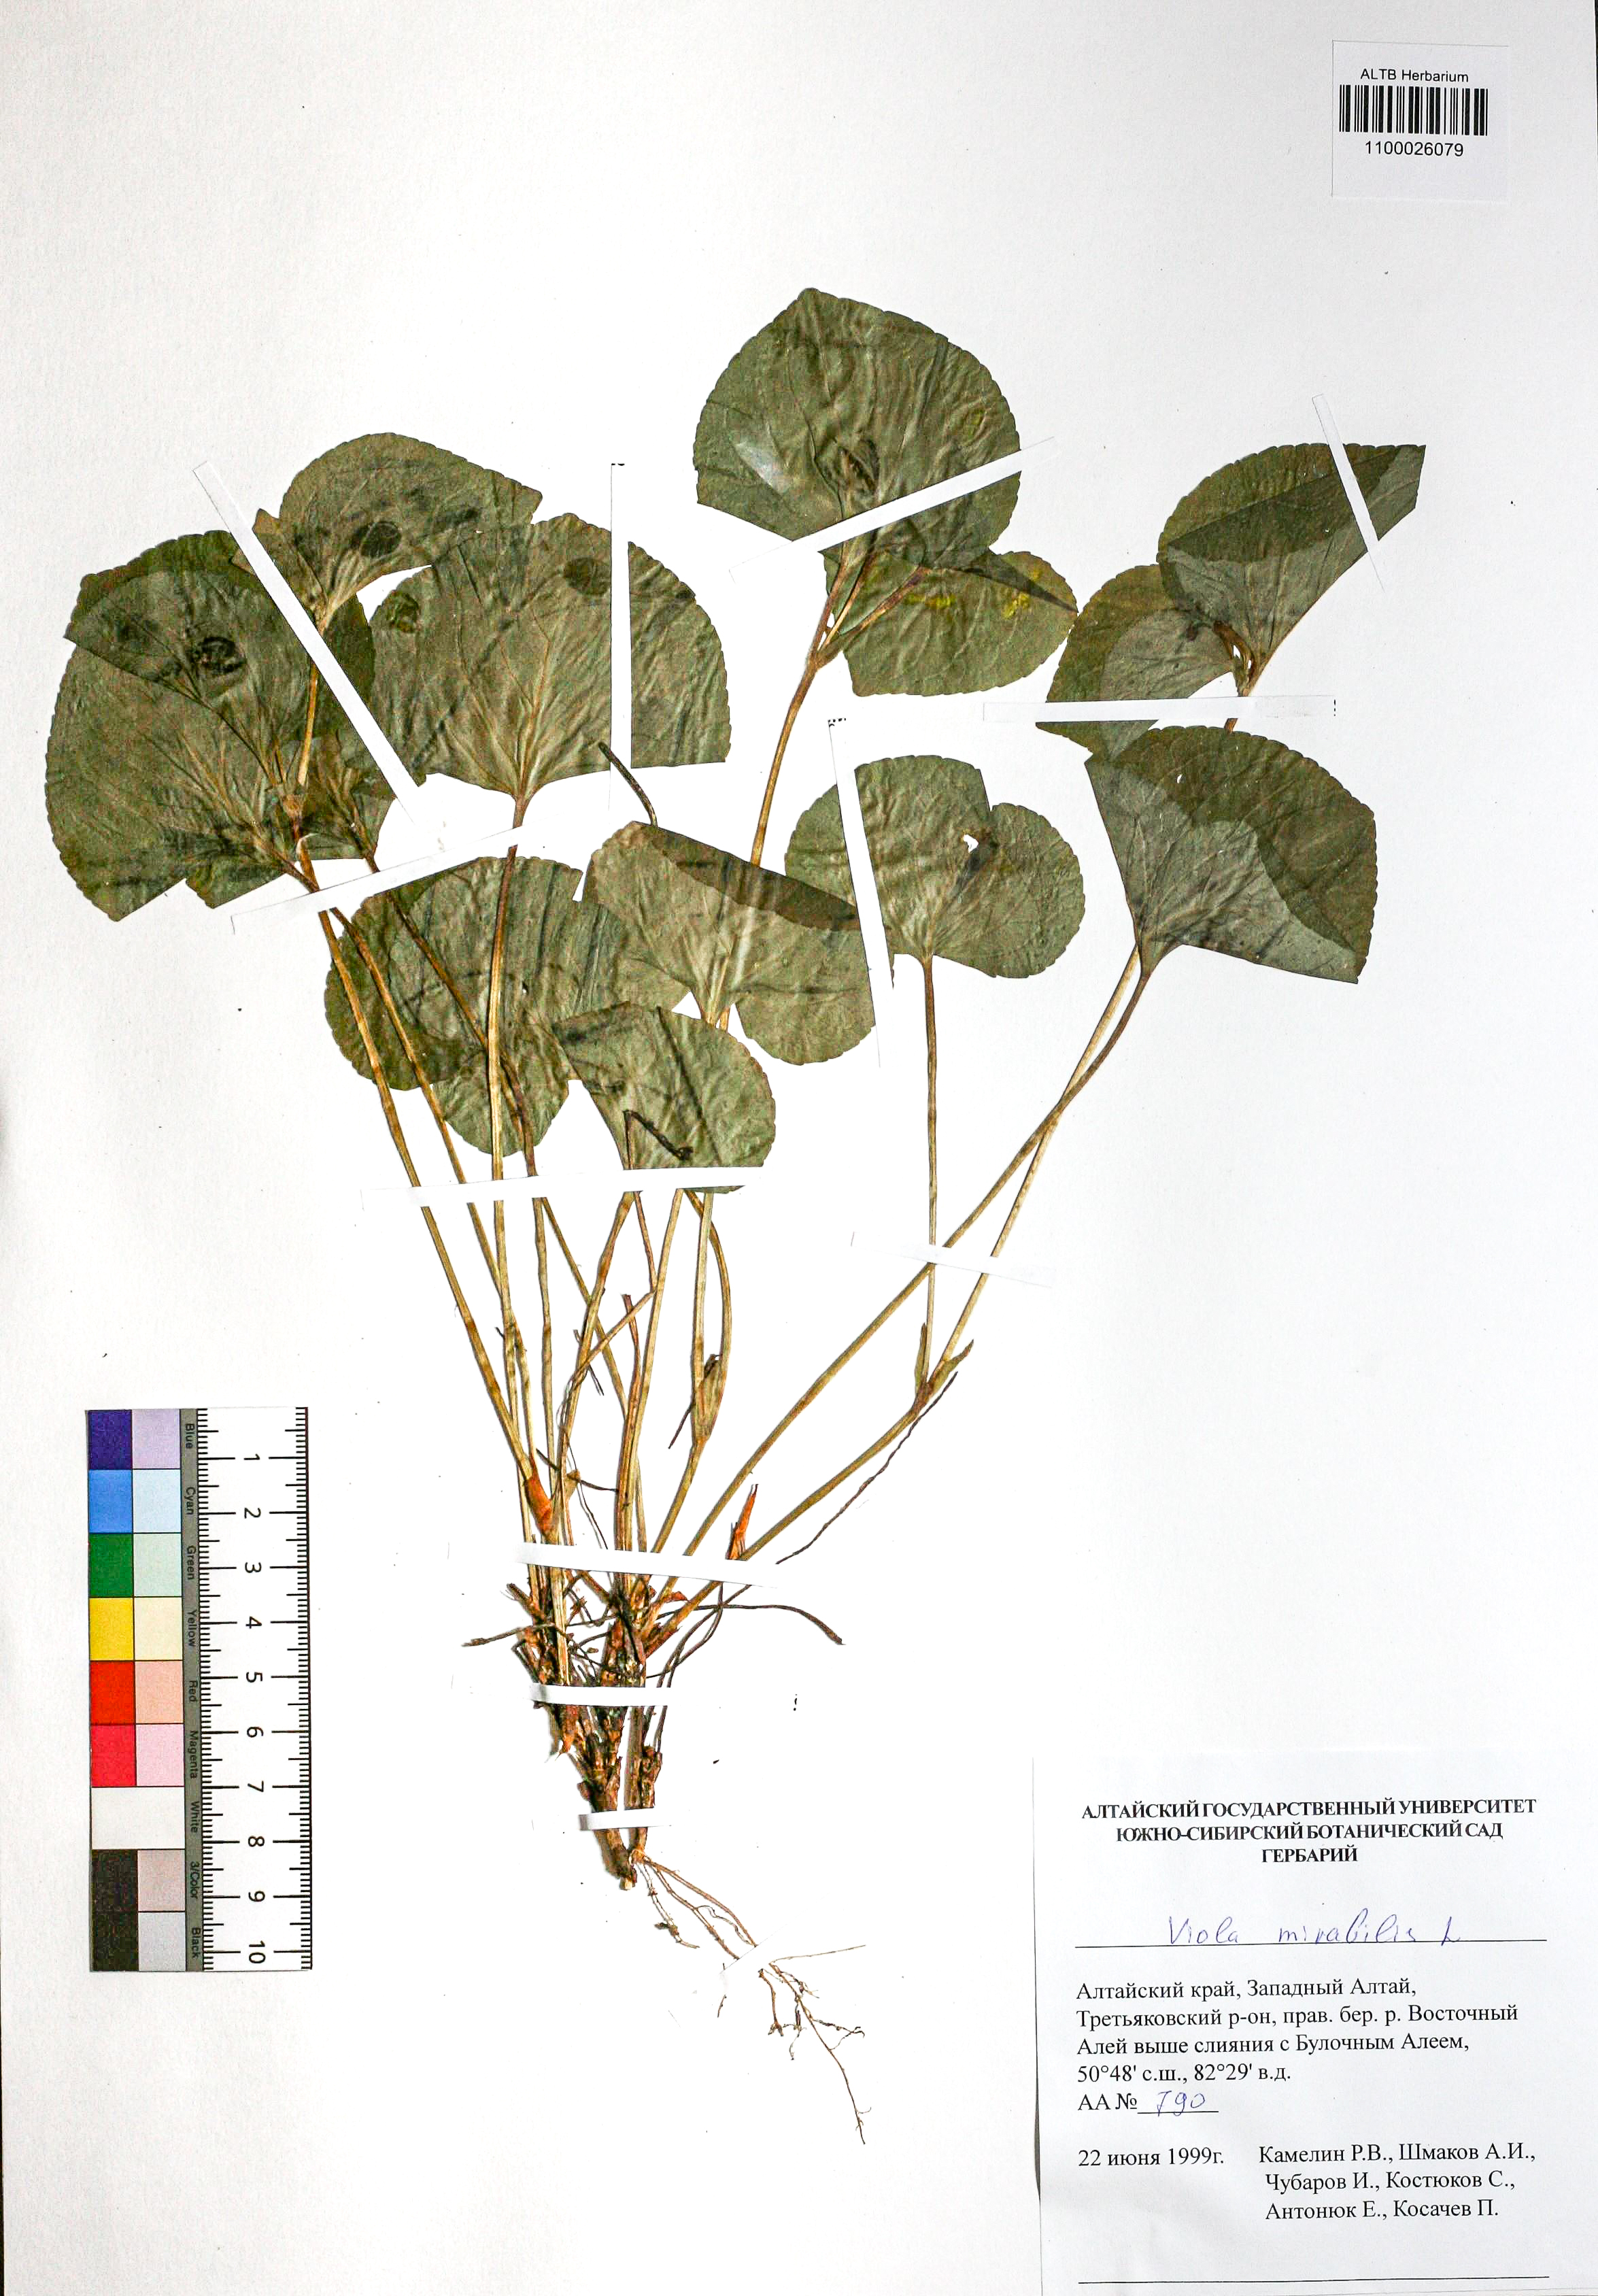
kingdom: Plantae
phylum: Tracheophyta
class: Magnoliopsida
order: Malpighiales
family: Violaceae
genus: Viola
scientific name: Viola mirabilis
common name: Wonder violet
